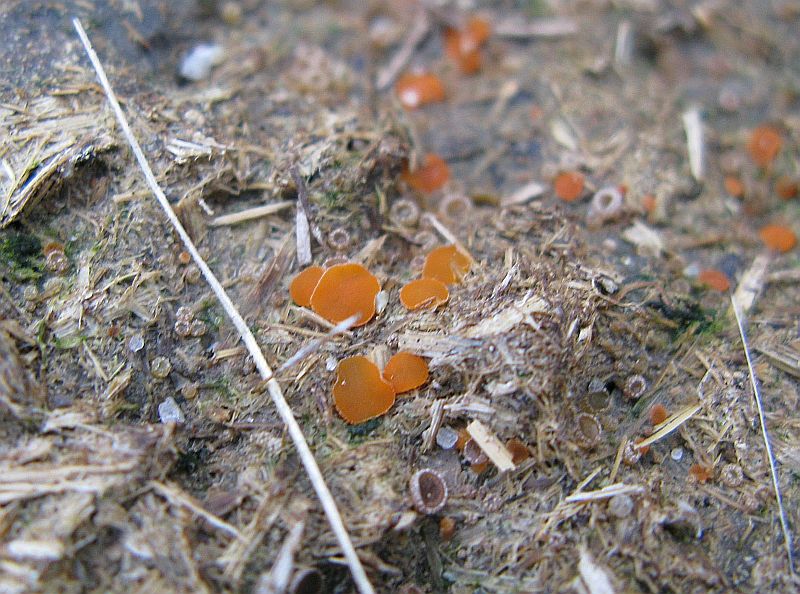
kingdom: Fungi
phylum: Ascomycota
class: Pezizomycetes
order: Pezizales
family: Pyronemataceae
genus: Cheilymenia
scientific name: Cheilymenia granulata
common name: møgbæger
